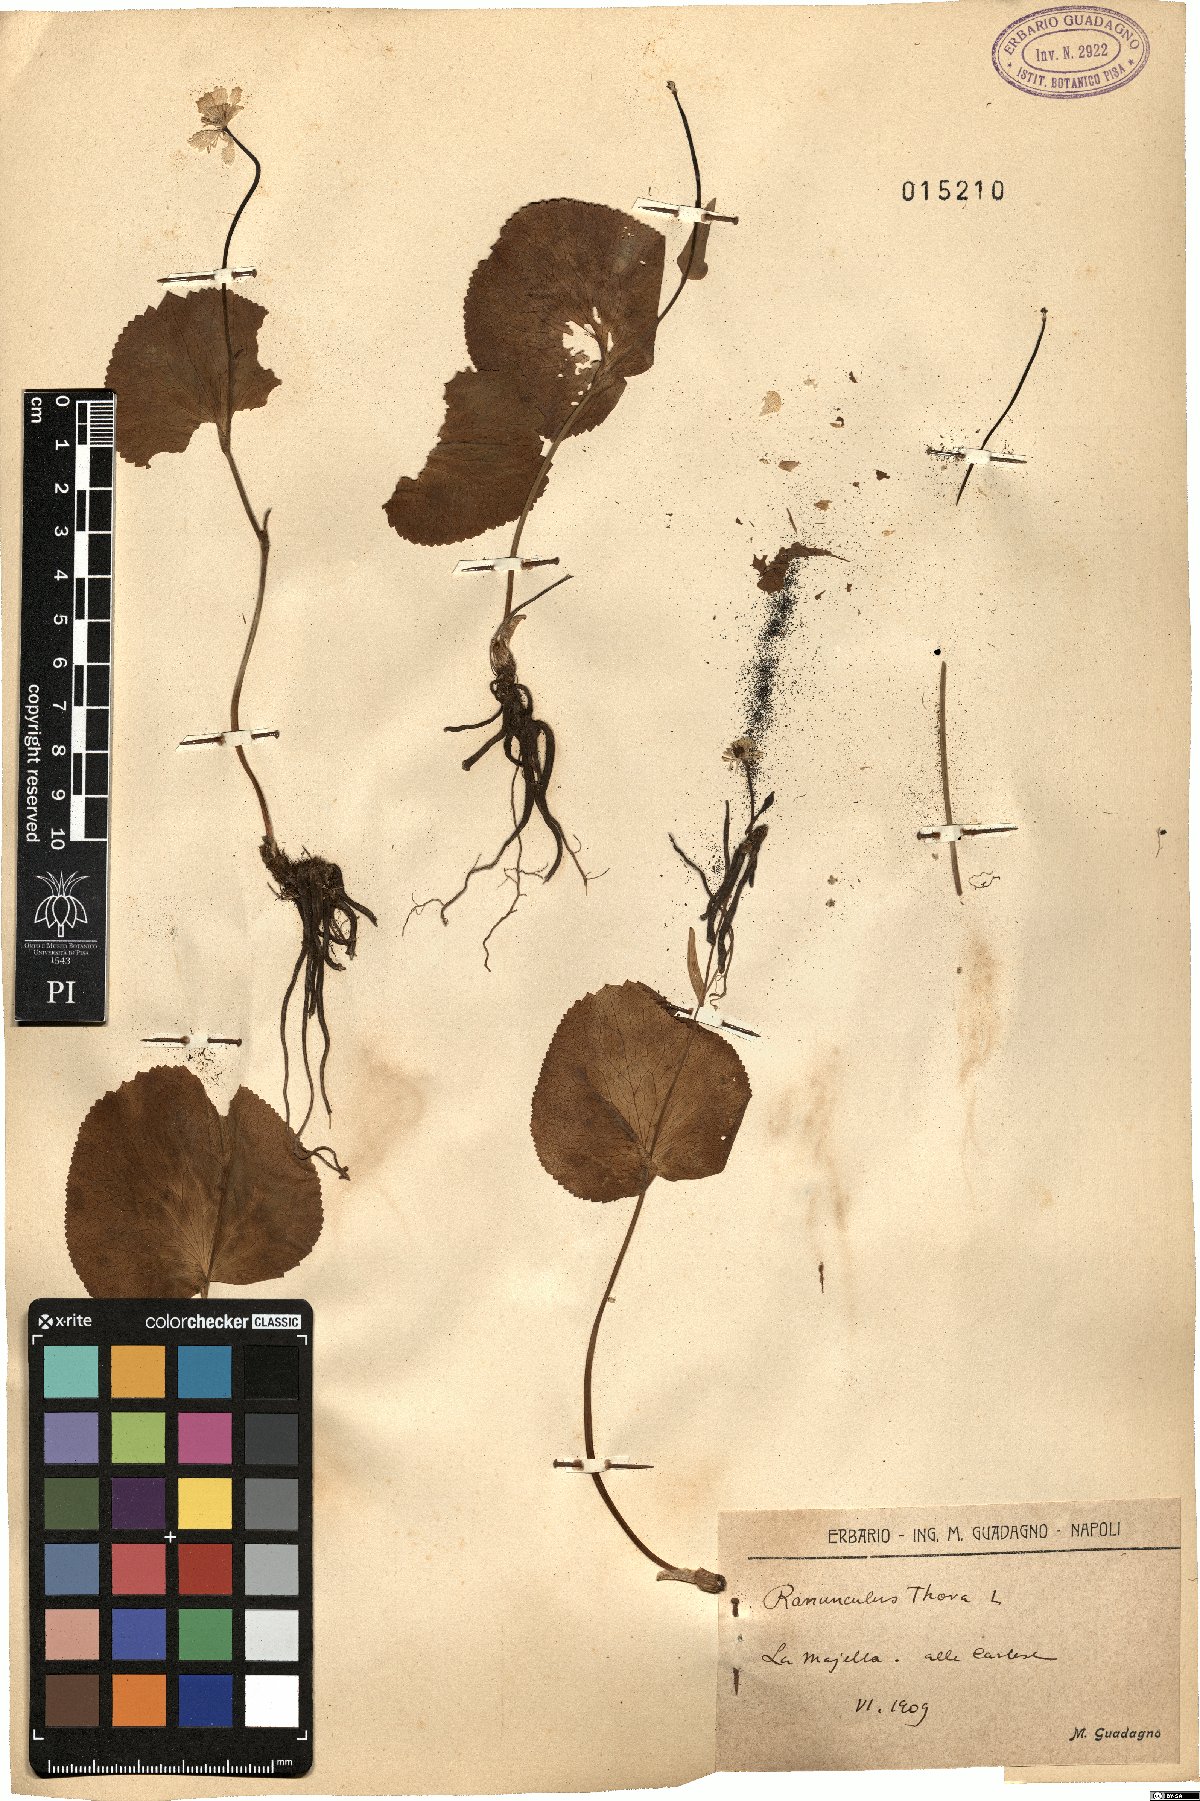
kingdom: Plantae
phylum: Tracheophyta
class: Magnoliopsida
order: Ranunculales
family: Ranunculaceae
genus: Ranunculus
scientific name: Ranunculus thora
